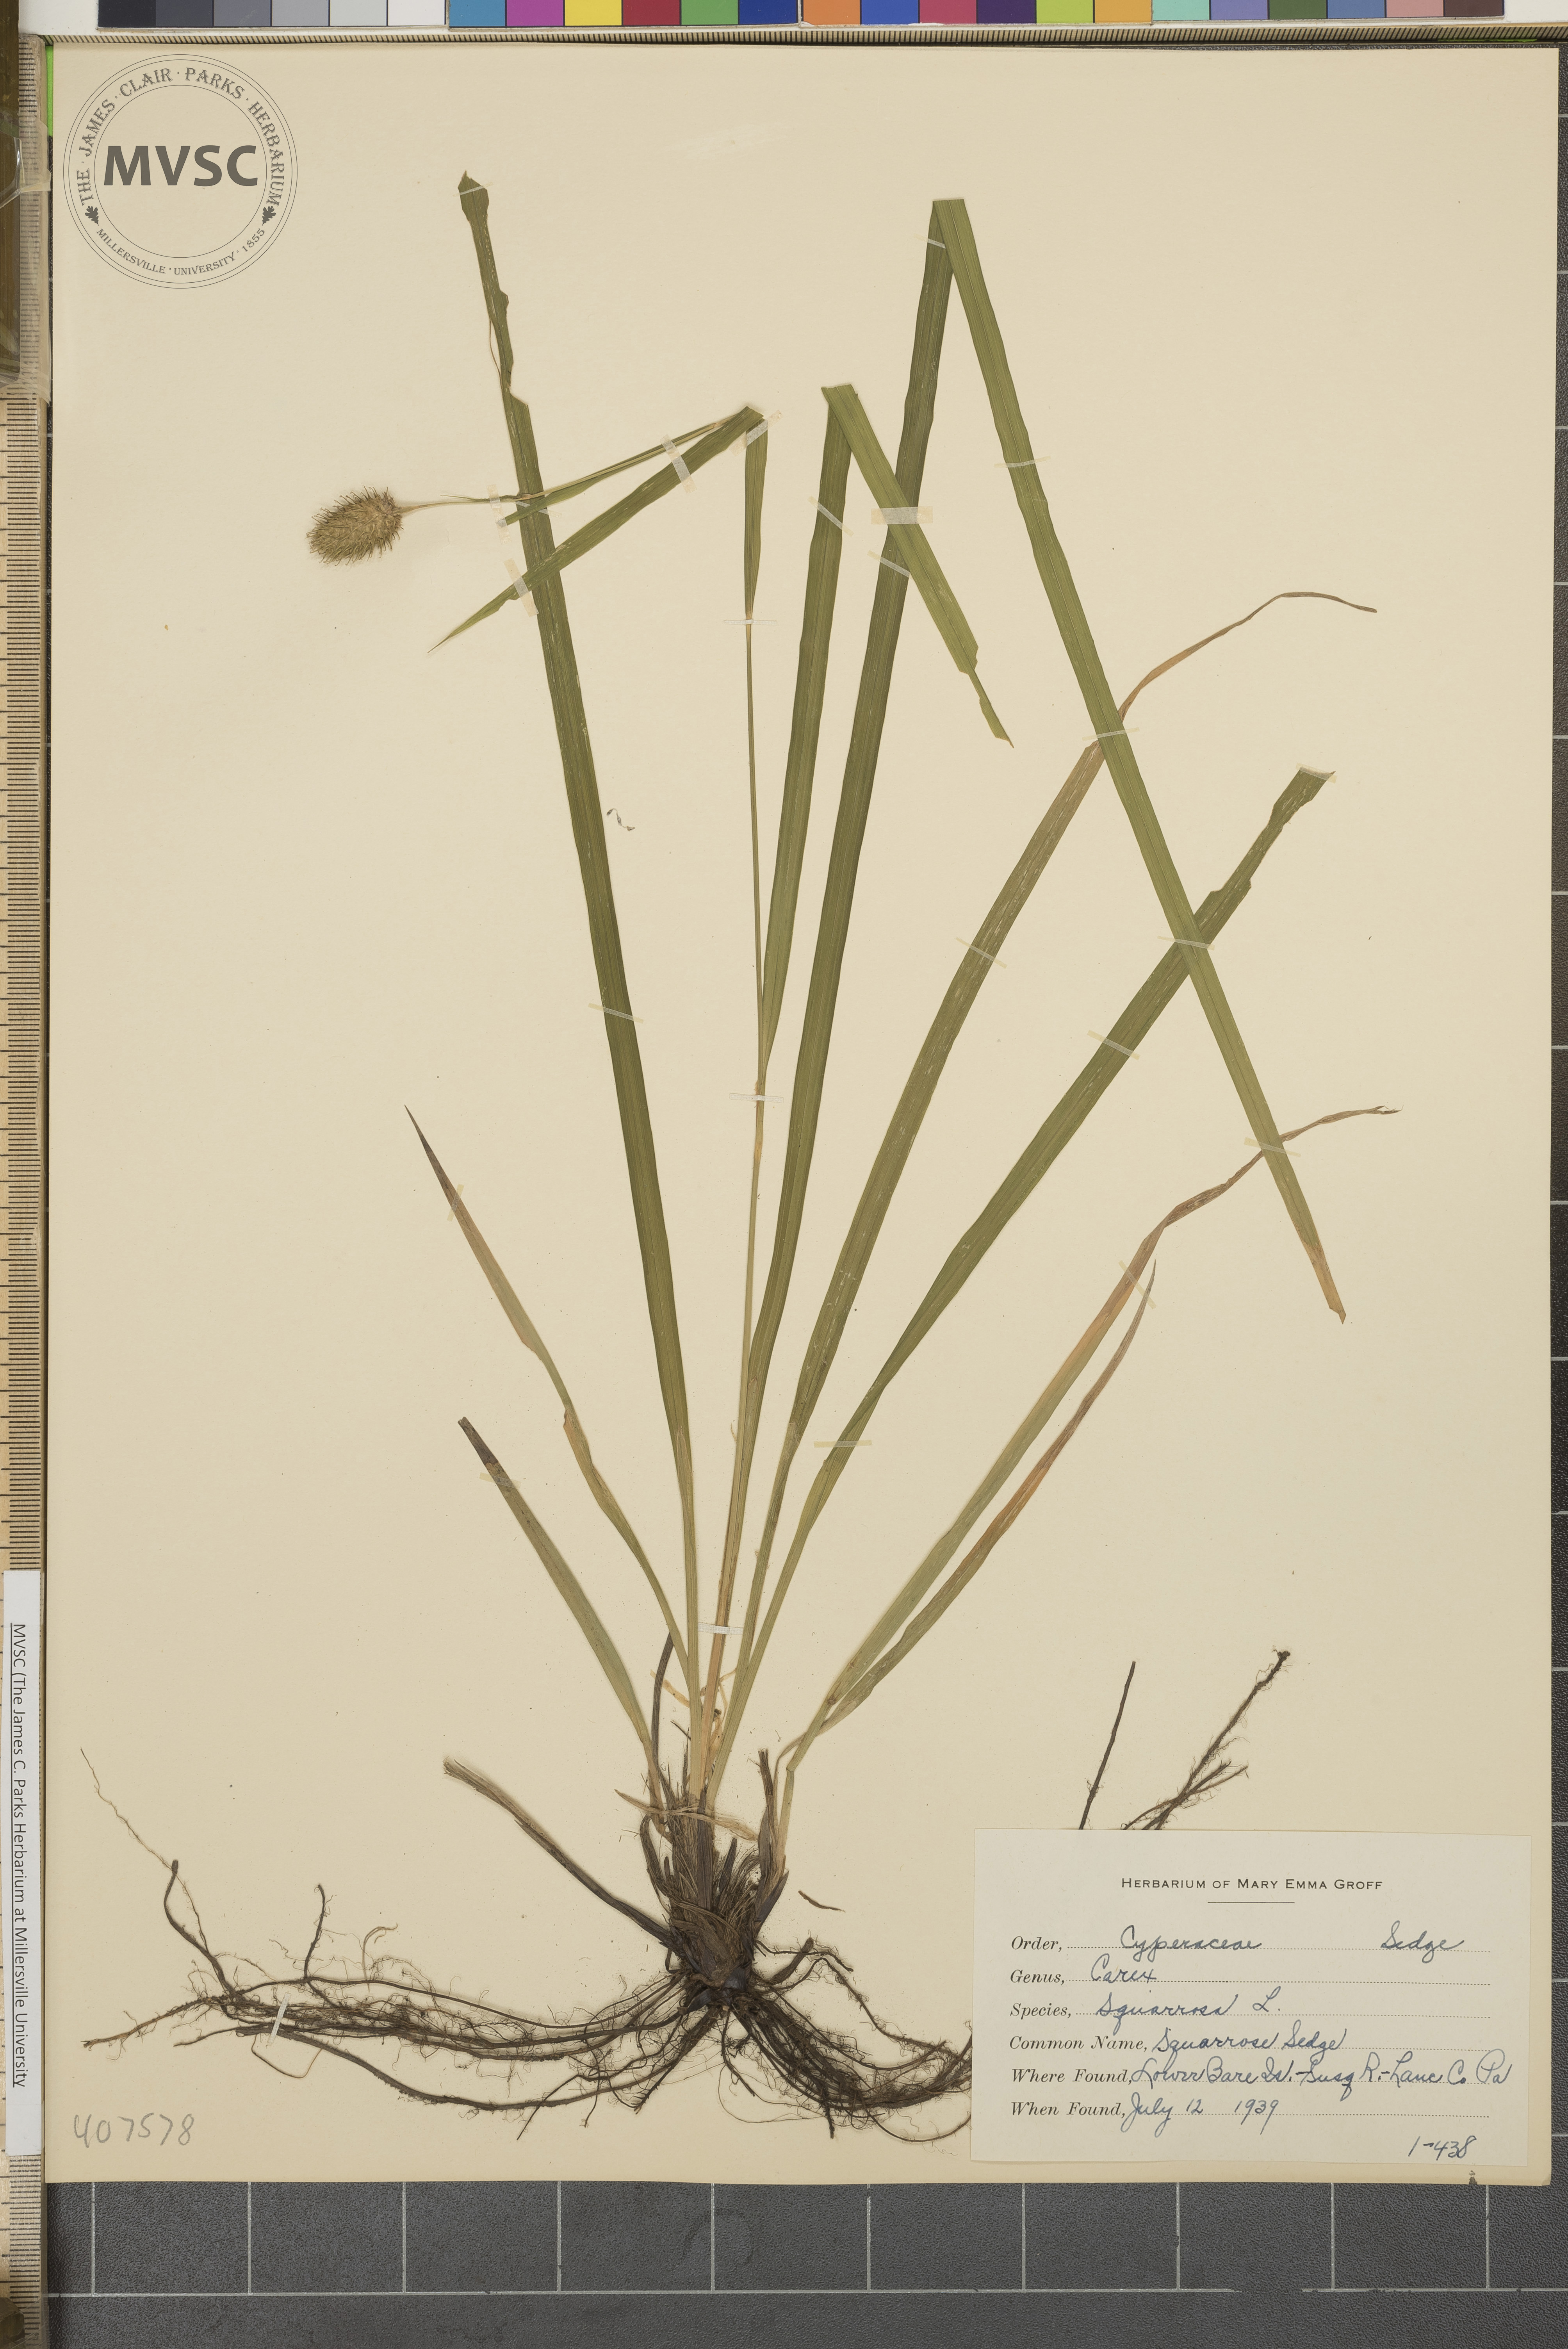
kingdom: Plantae
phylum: Tracheophyta
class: Liliopsida
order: Poales
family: Cyperaceae
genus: Carex
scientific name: Carex squarrosa
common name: Squarrose Sedge
